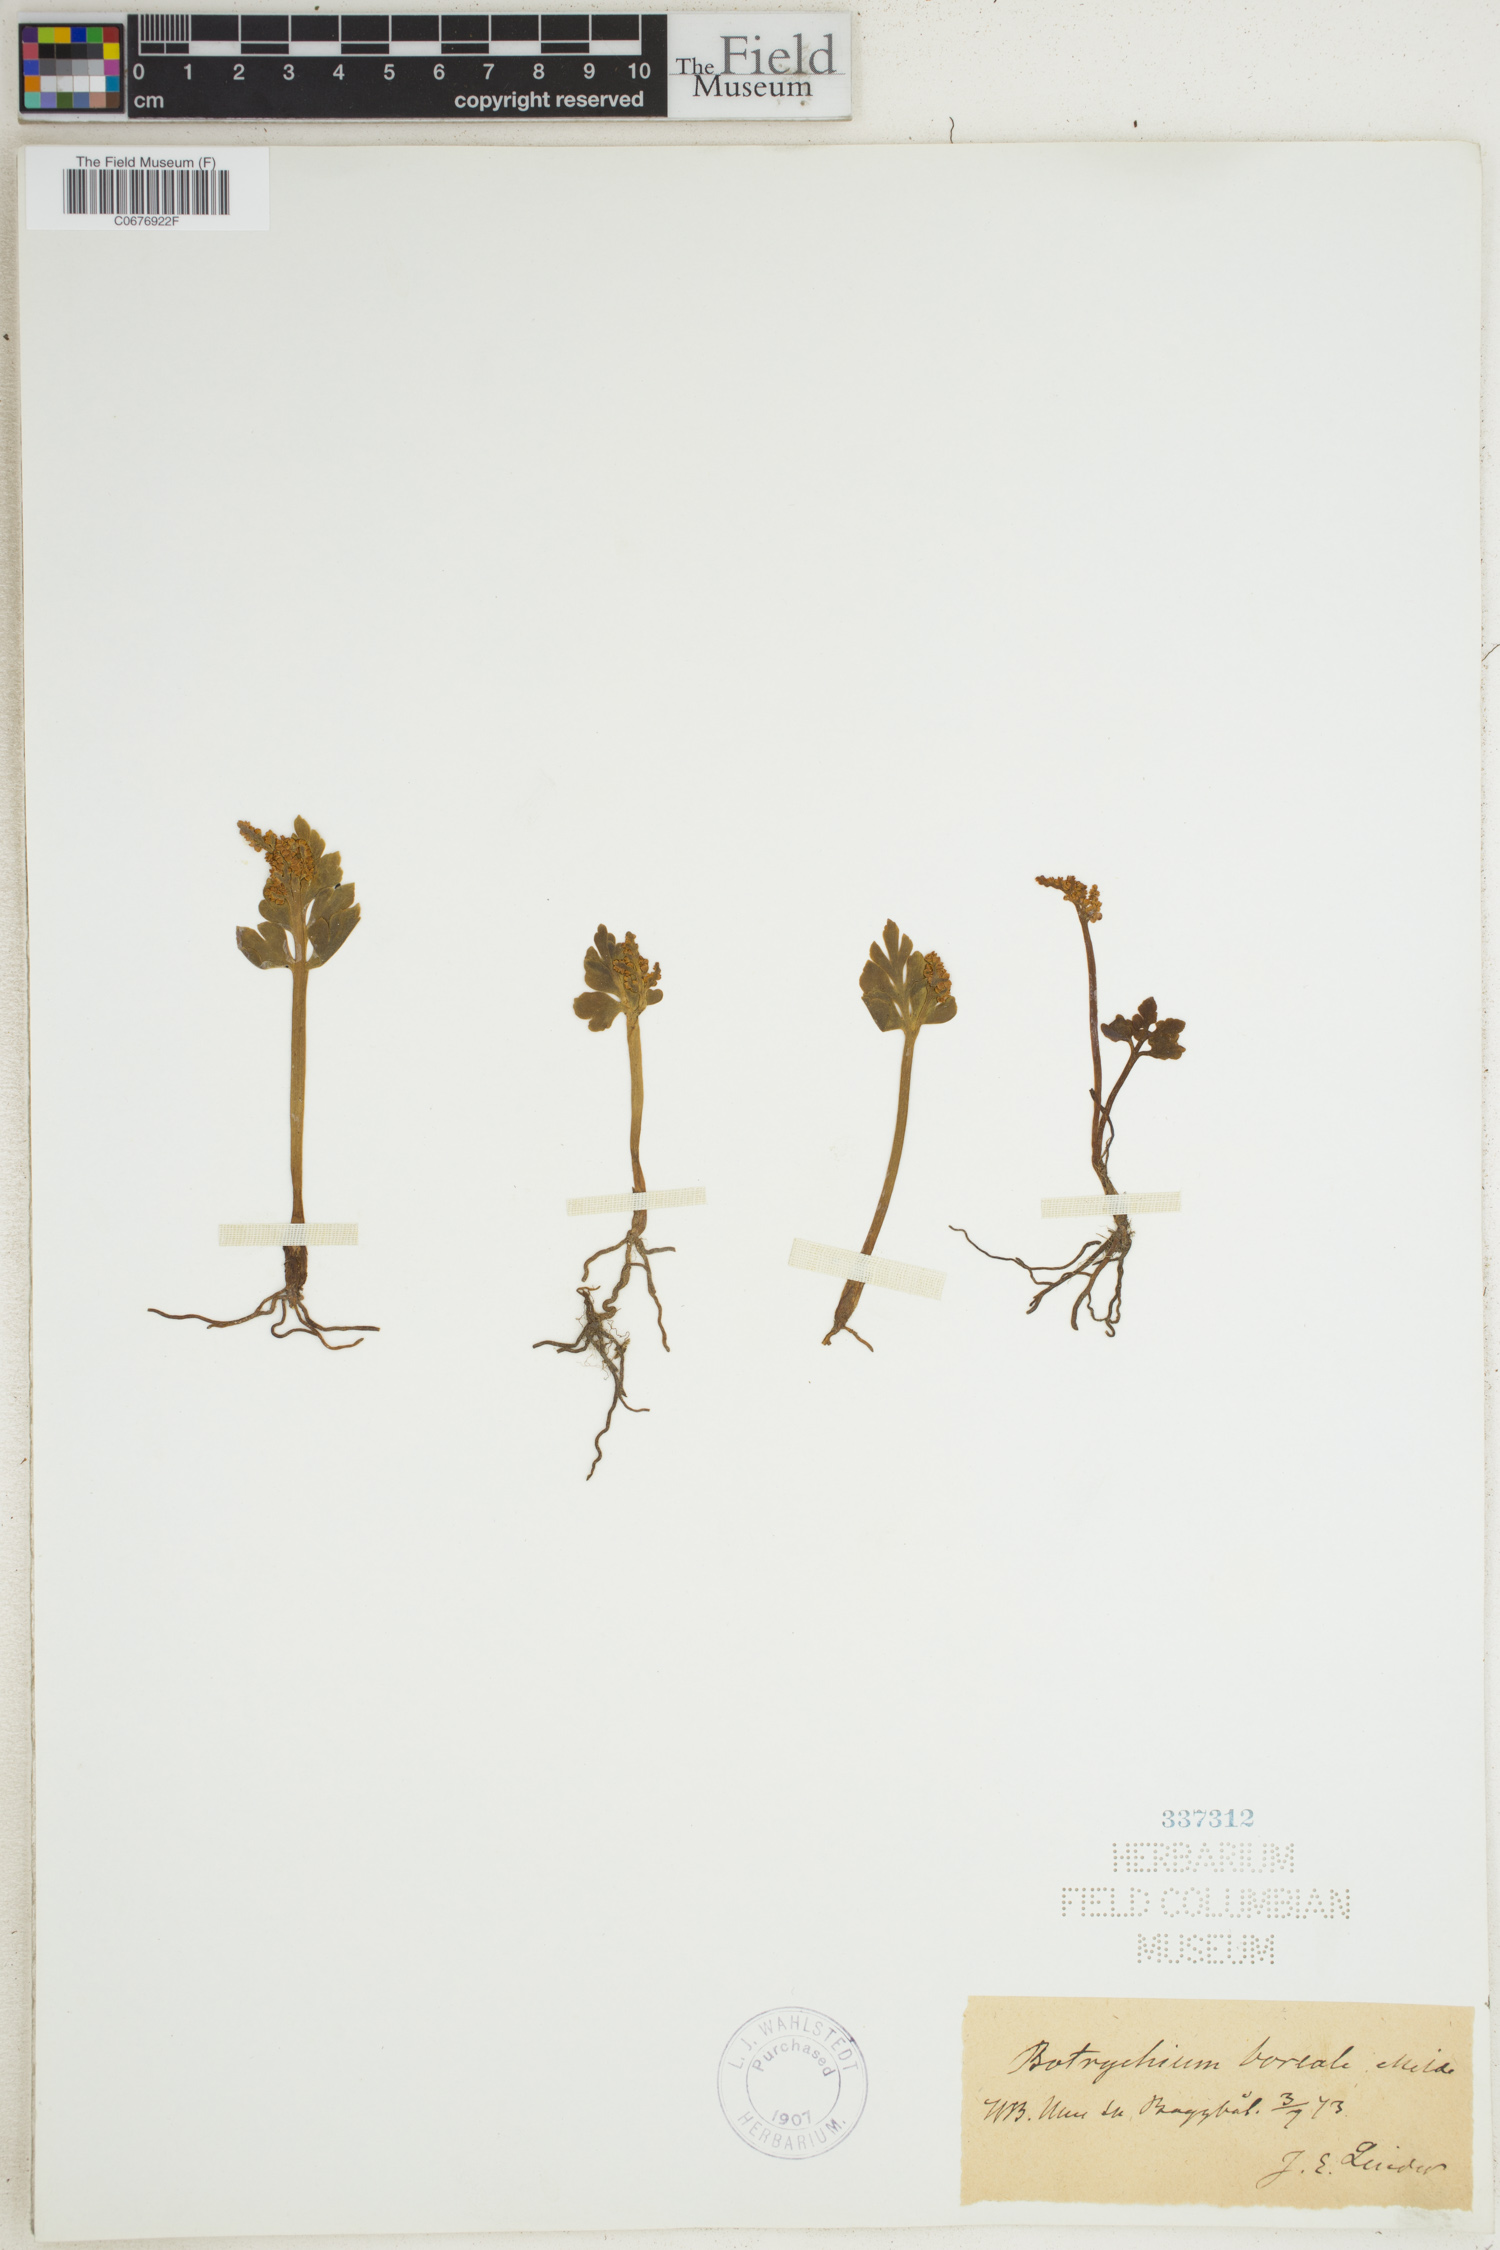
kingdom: Plantae
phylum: Tracheophyta
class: Polypodiopsida
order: Ophioglossales
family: Ophioglossaceae
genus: Botrychium
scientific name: Botrychium boreale
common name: Boreal moonwort
